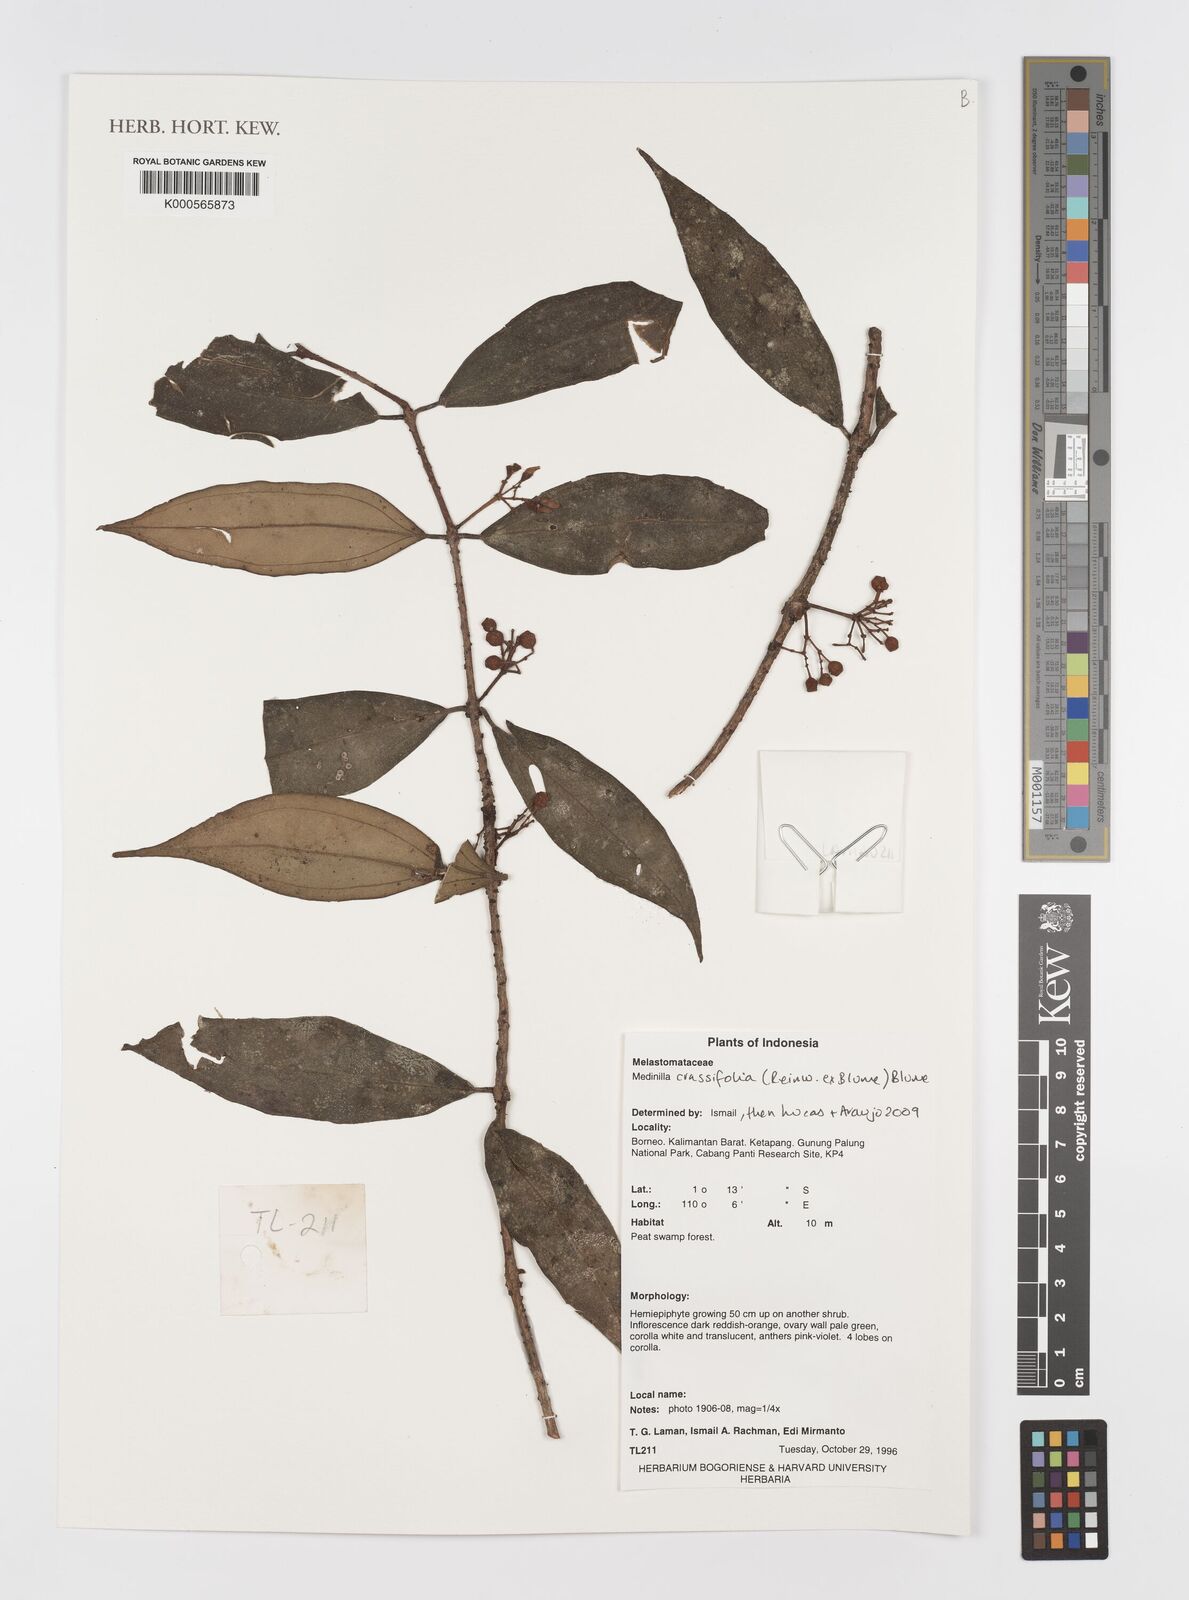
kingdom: Plantae
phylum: Tracheophyta
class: Magnoliopsida
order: Myrtales
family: Melastomataceae
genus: Medinilla
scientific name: Medinilla crassifolia
